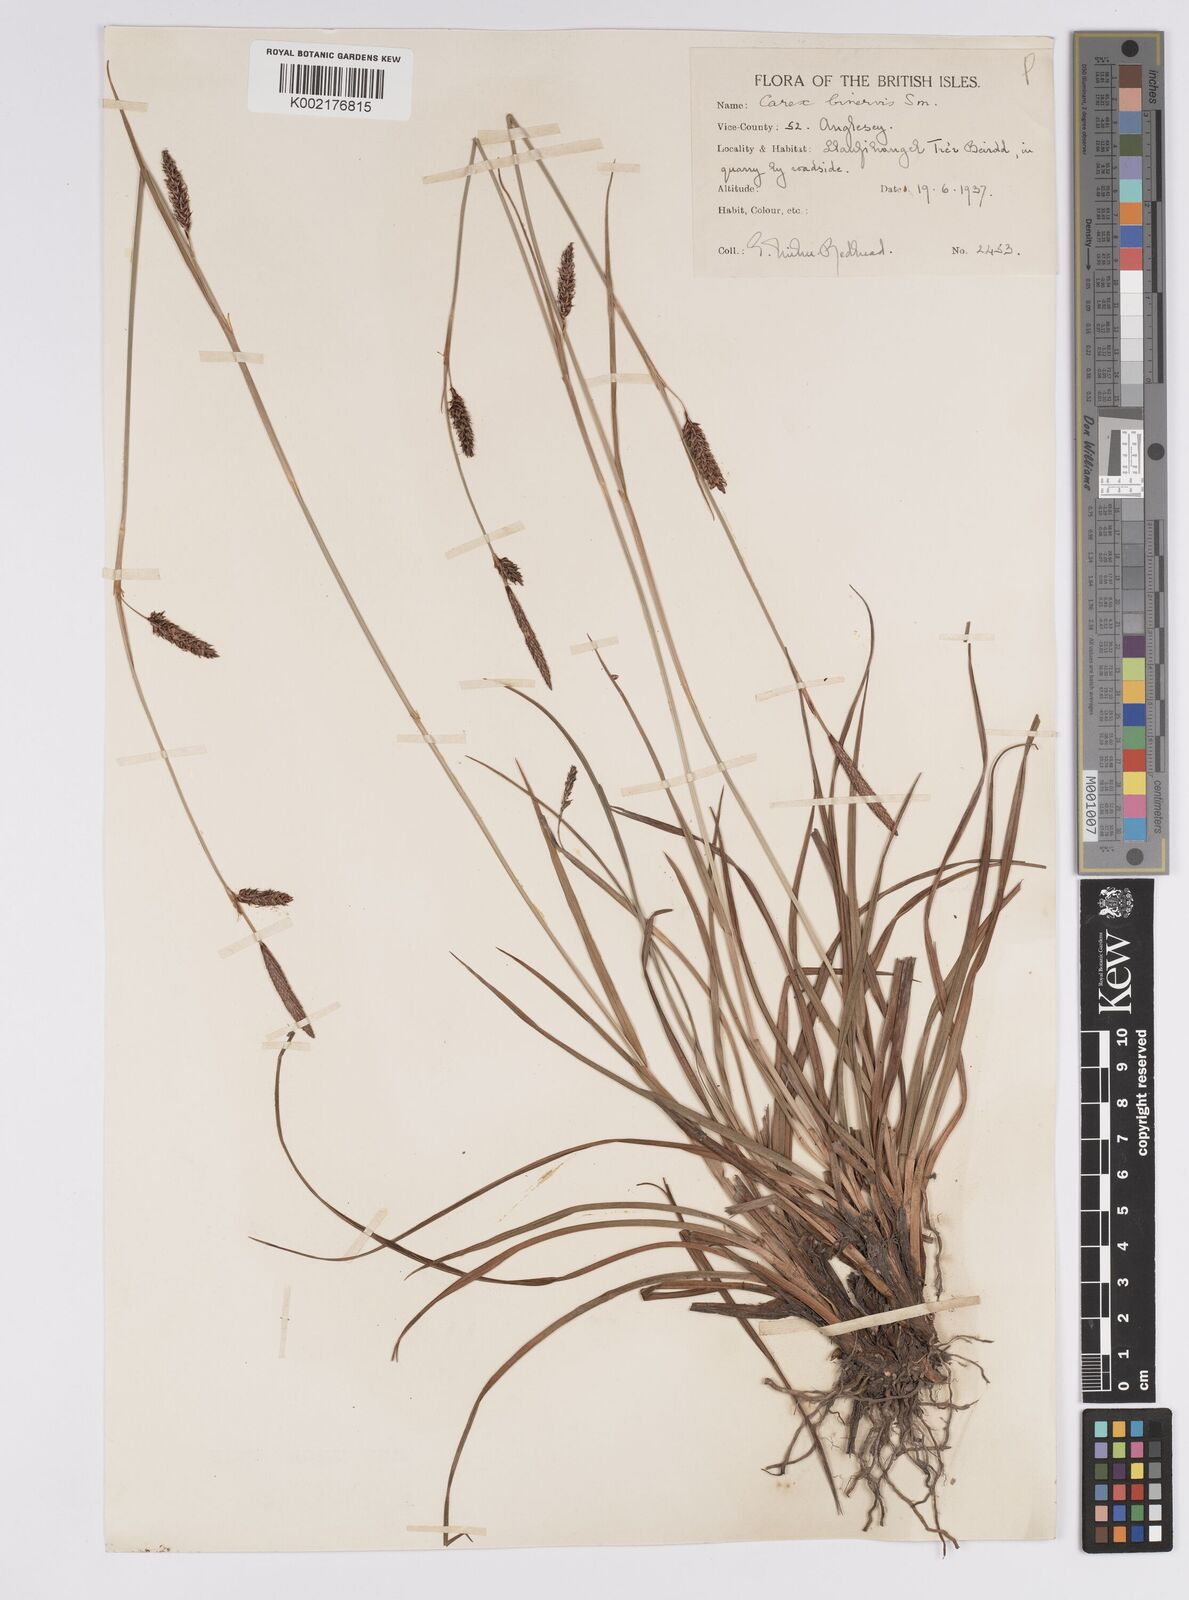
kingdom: Plantae
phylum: Tracheophyta
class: Liliopsida
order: Poales
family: Cyperaceae
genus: Carex
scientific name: Carex binervis
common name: Green-ribbed sedge
